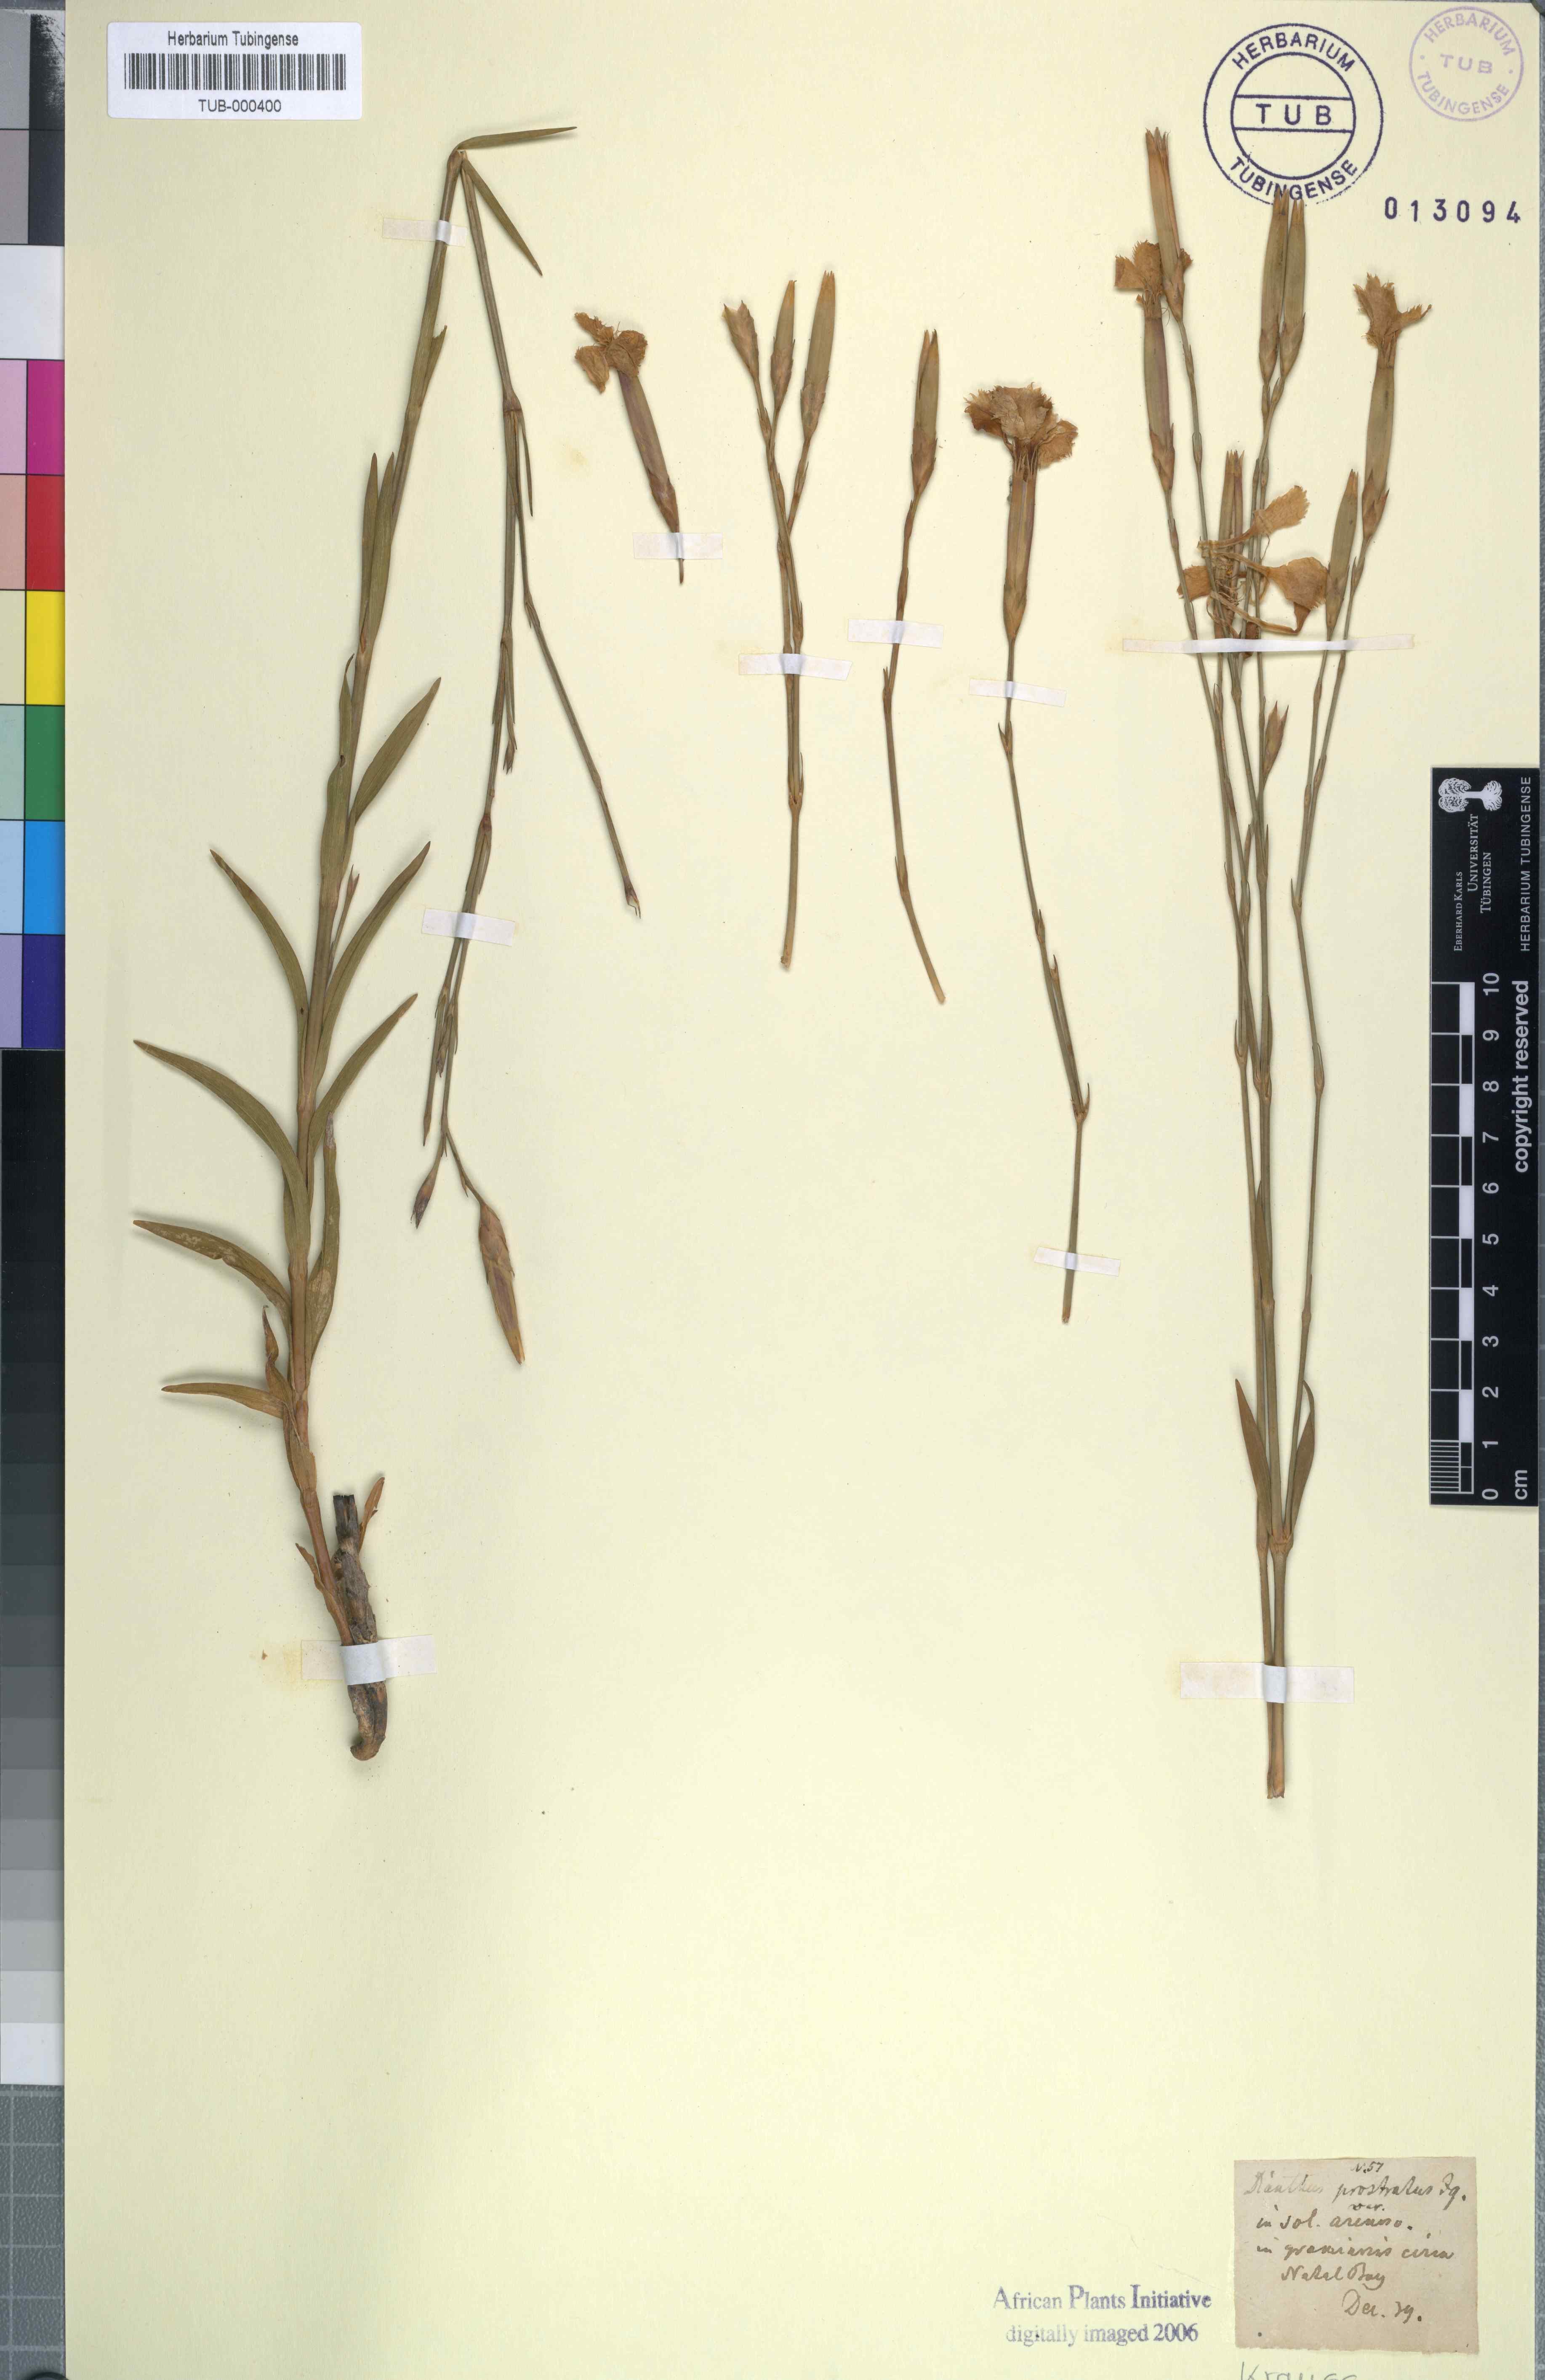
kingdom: Plantae
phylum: Tracheophyta
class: Magnoliopsida
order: Caryophyllales
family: Caryophyllaceae
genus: Dianthus
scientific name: Dianthus caespitosus
